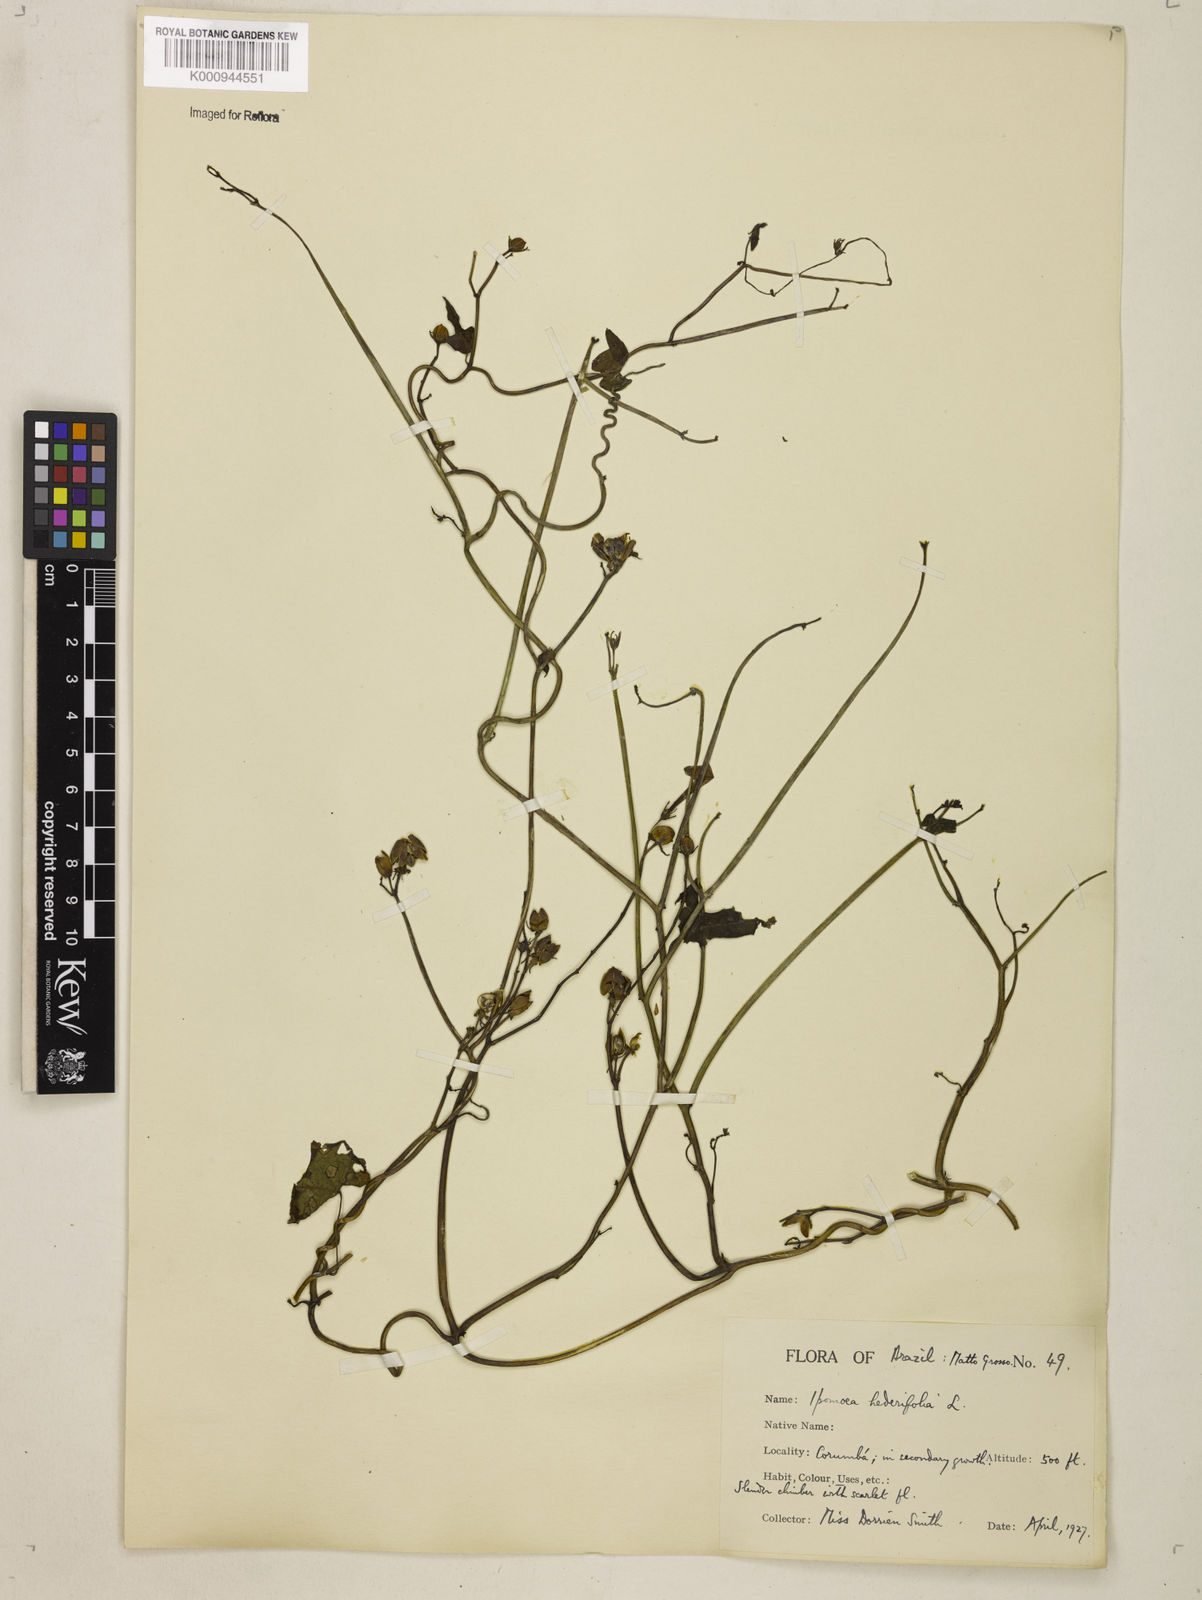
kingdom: Plantae
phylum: Tracheophyta
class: Magnoliopsida
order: Solanales
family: Convolvulaceae
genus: Ipomoea
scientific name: Ipomoea hederifolia
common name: Ivy-leaf morning-glory
